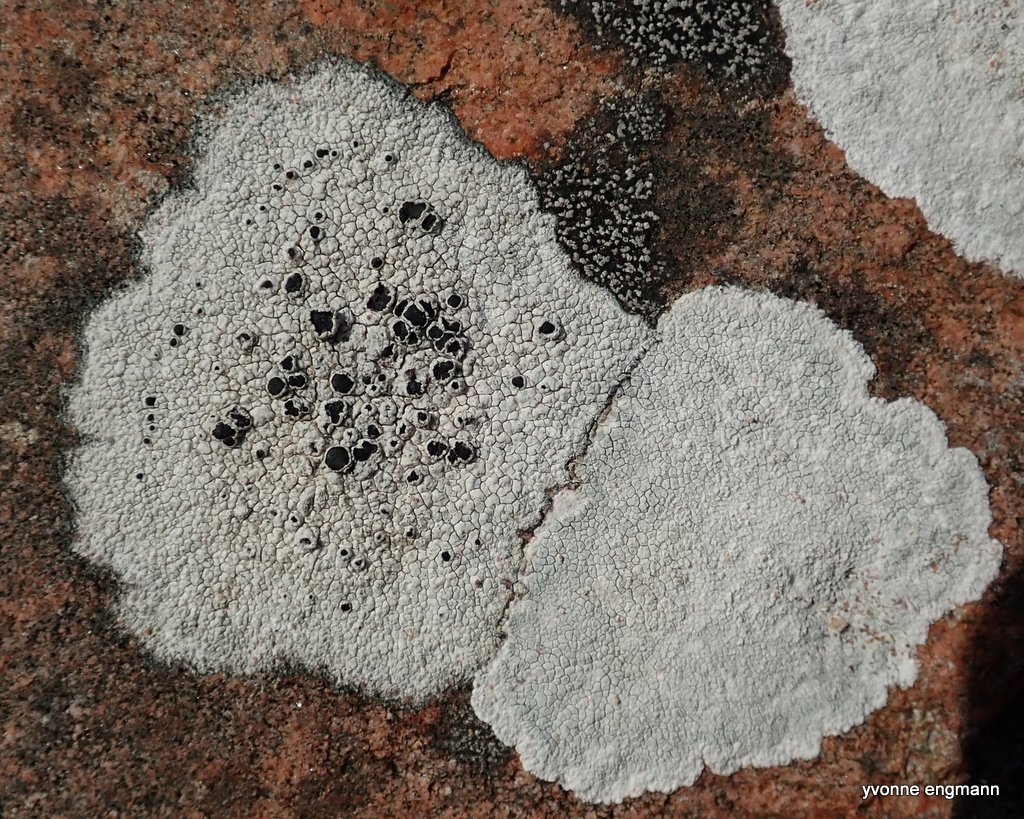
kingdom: Fungi
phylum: Ascomycota
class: Lecanoromycetes
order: Lecanorales
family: Tephromelataceae
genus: Tephromela
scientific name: Tephromela atra
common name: sortfrugtet kantskivelav
